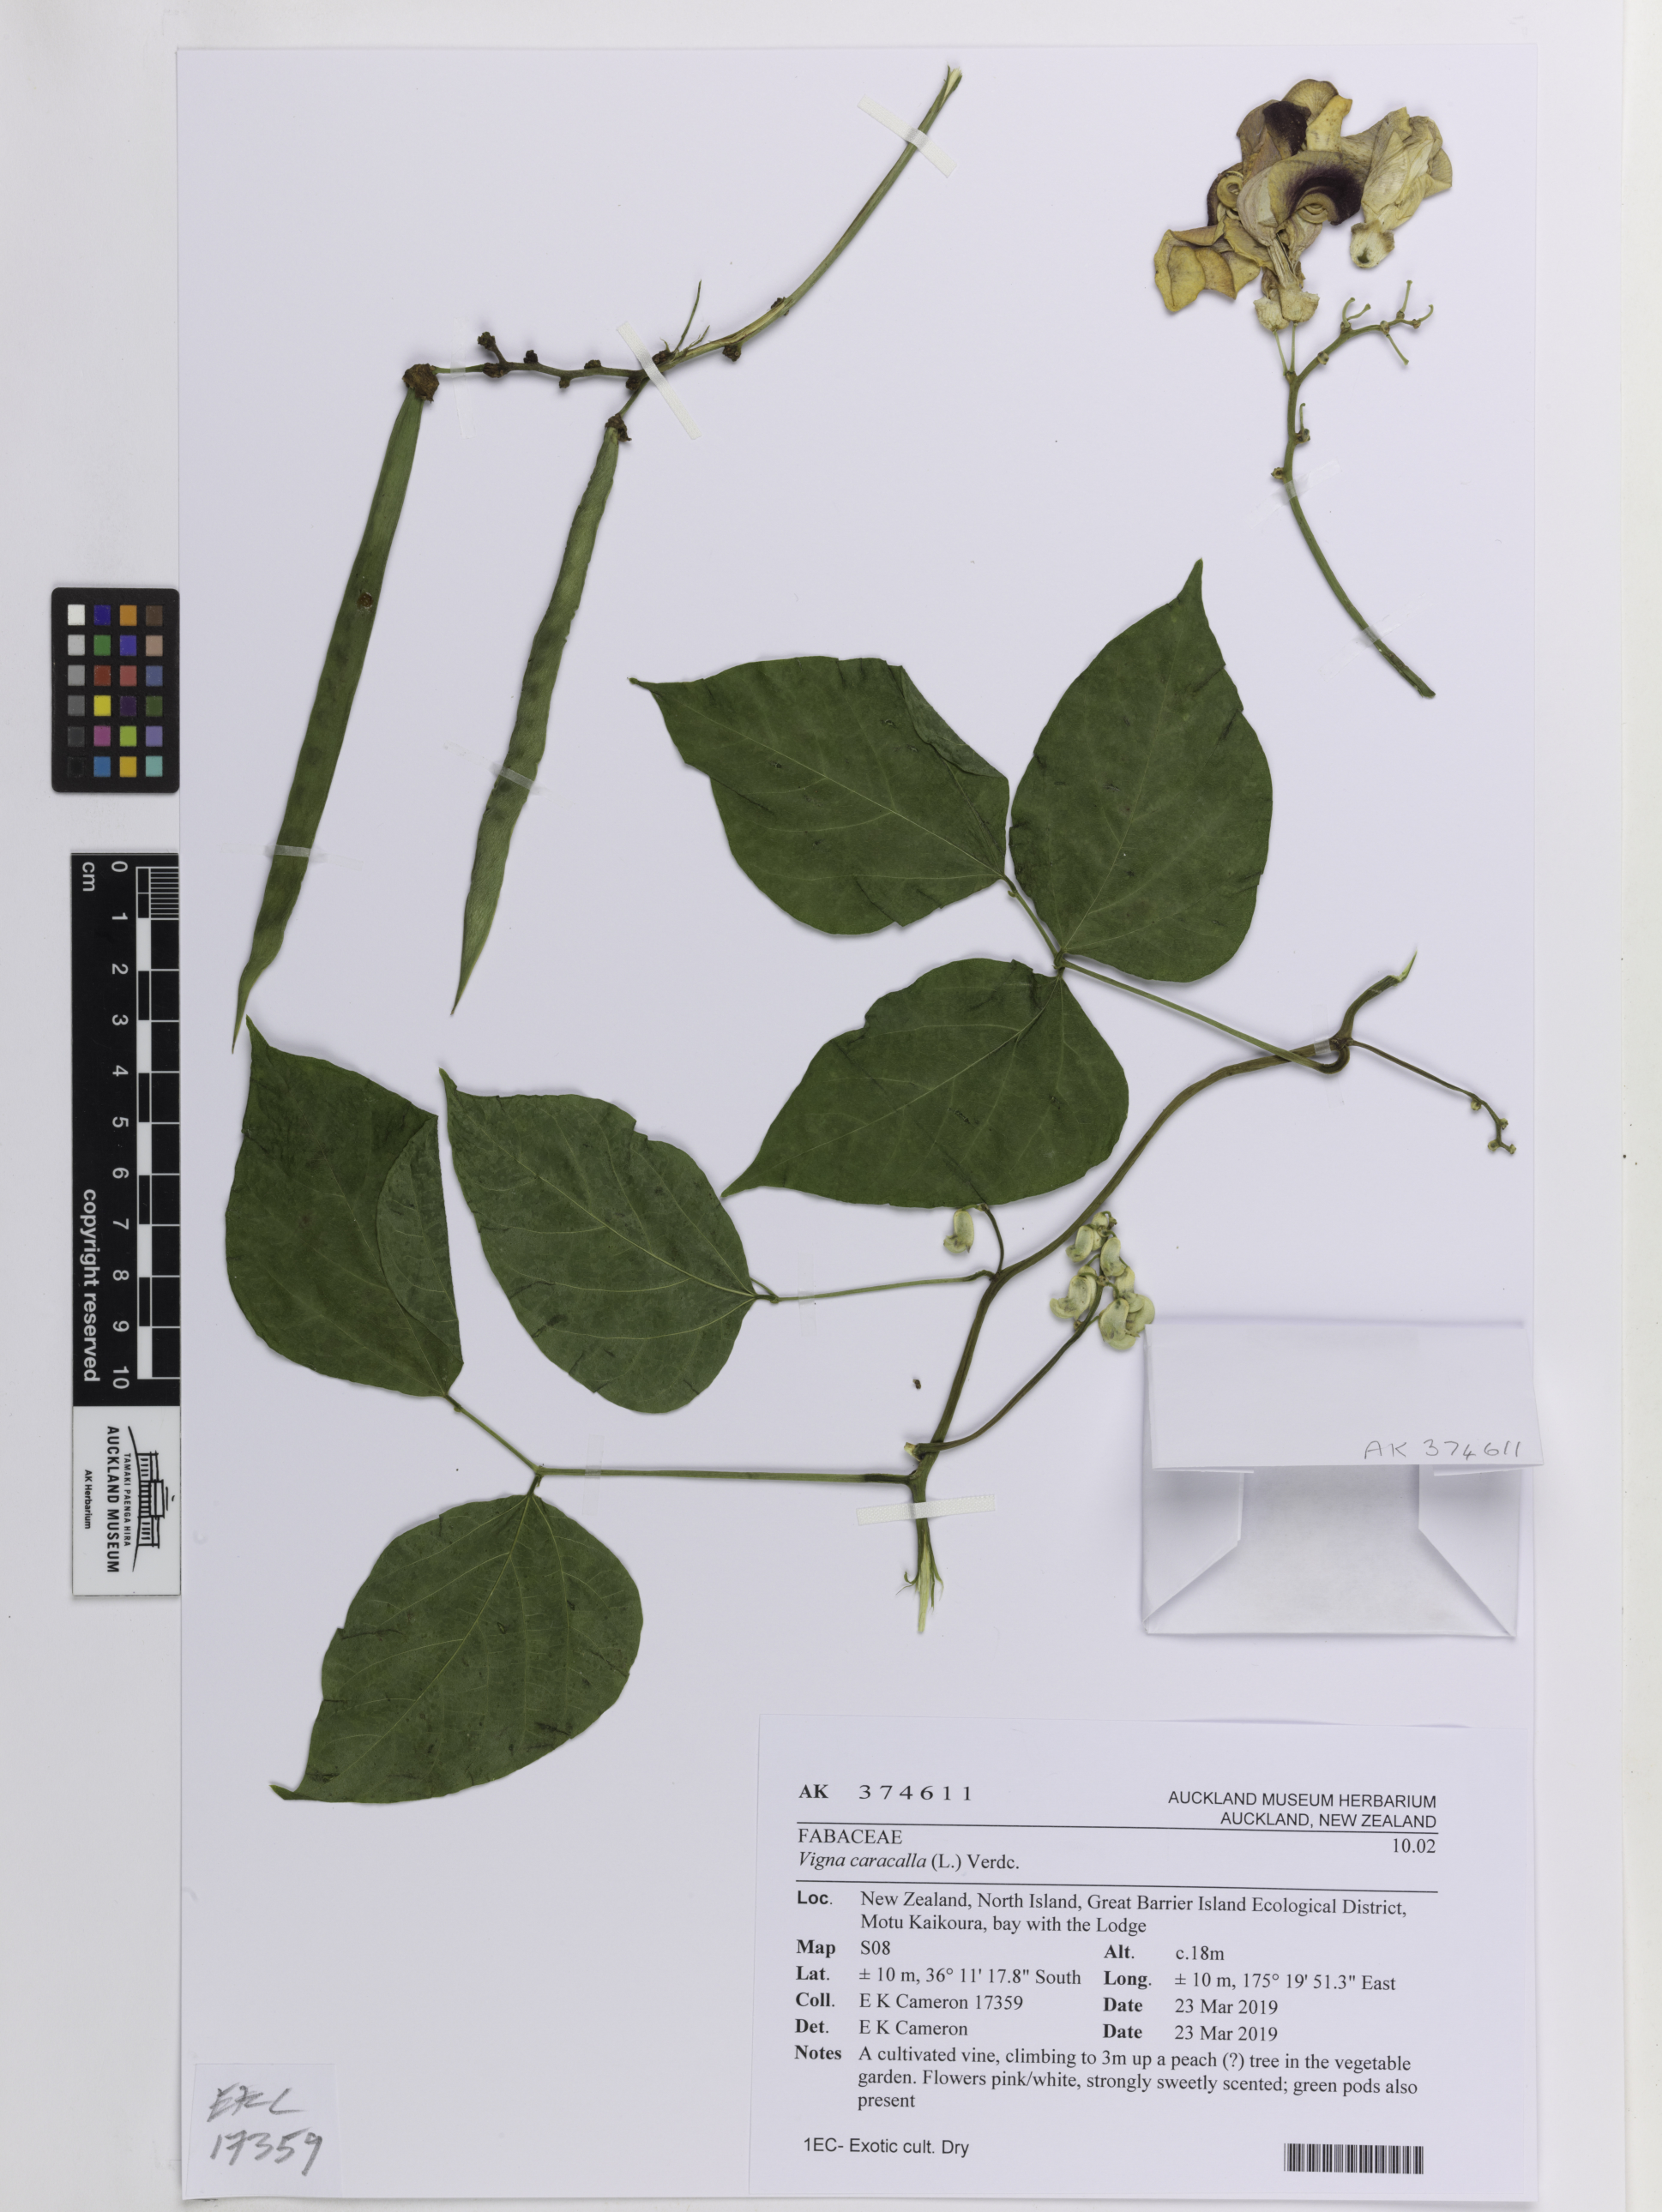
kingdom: Plantae
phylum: Tracheophyta
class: Magnoliopsida
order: Fabales
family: Fabaceae
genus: Cochliasanthus
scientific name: Cochliasanthus caracalla
